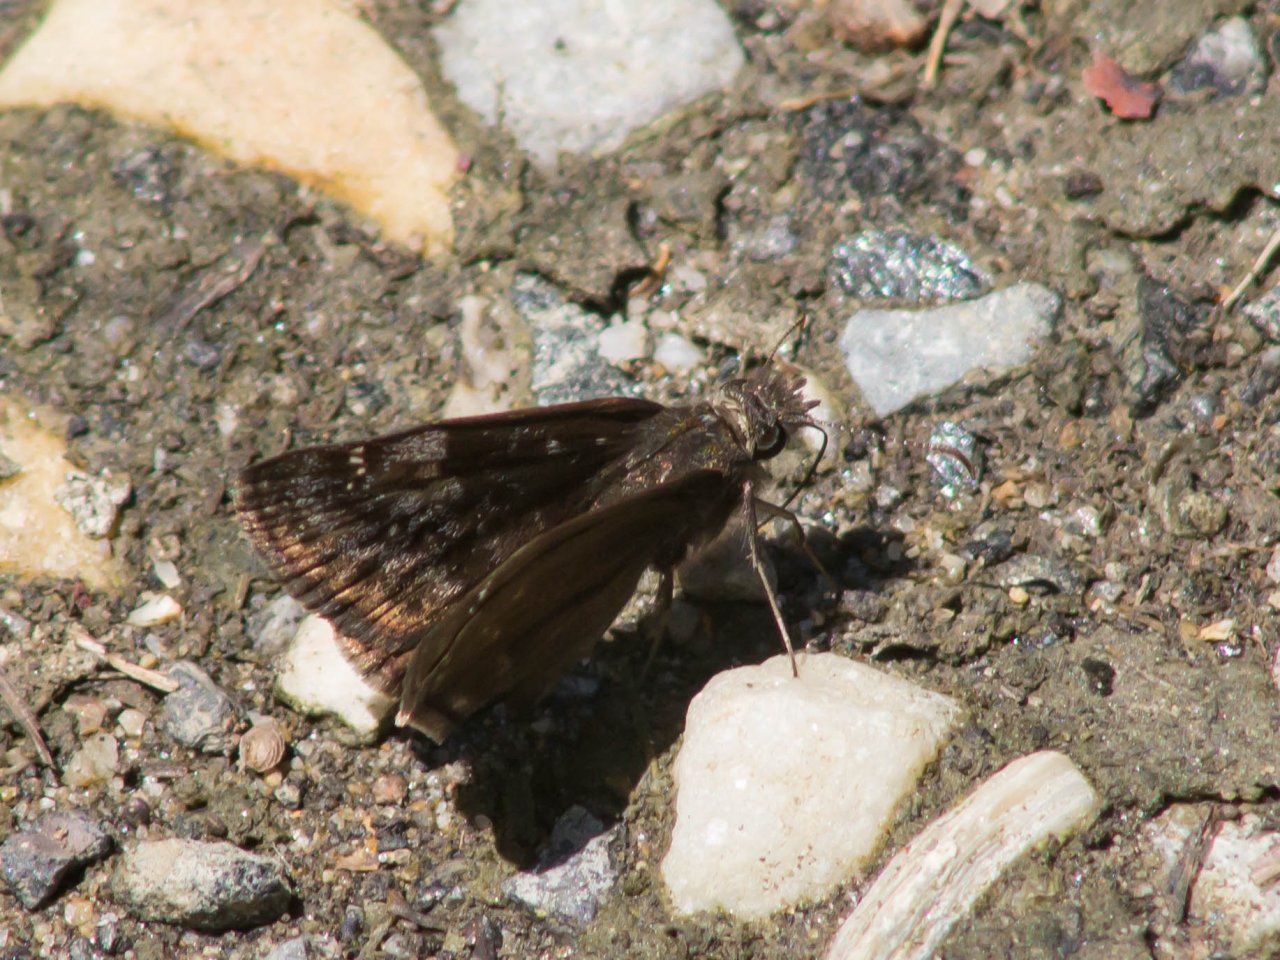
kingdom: Animalia
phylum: Arthropoda
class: Insecta
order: Lepidoptera
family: Hesperiidae
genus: Gesta
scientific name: Gesta
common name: Wild Indigo Duskywing
